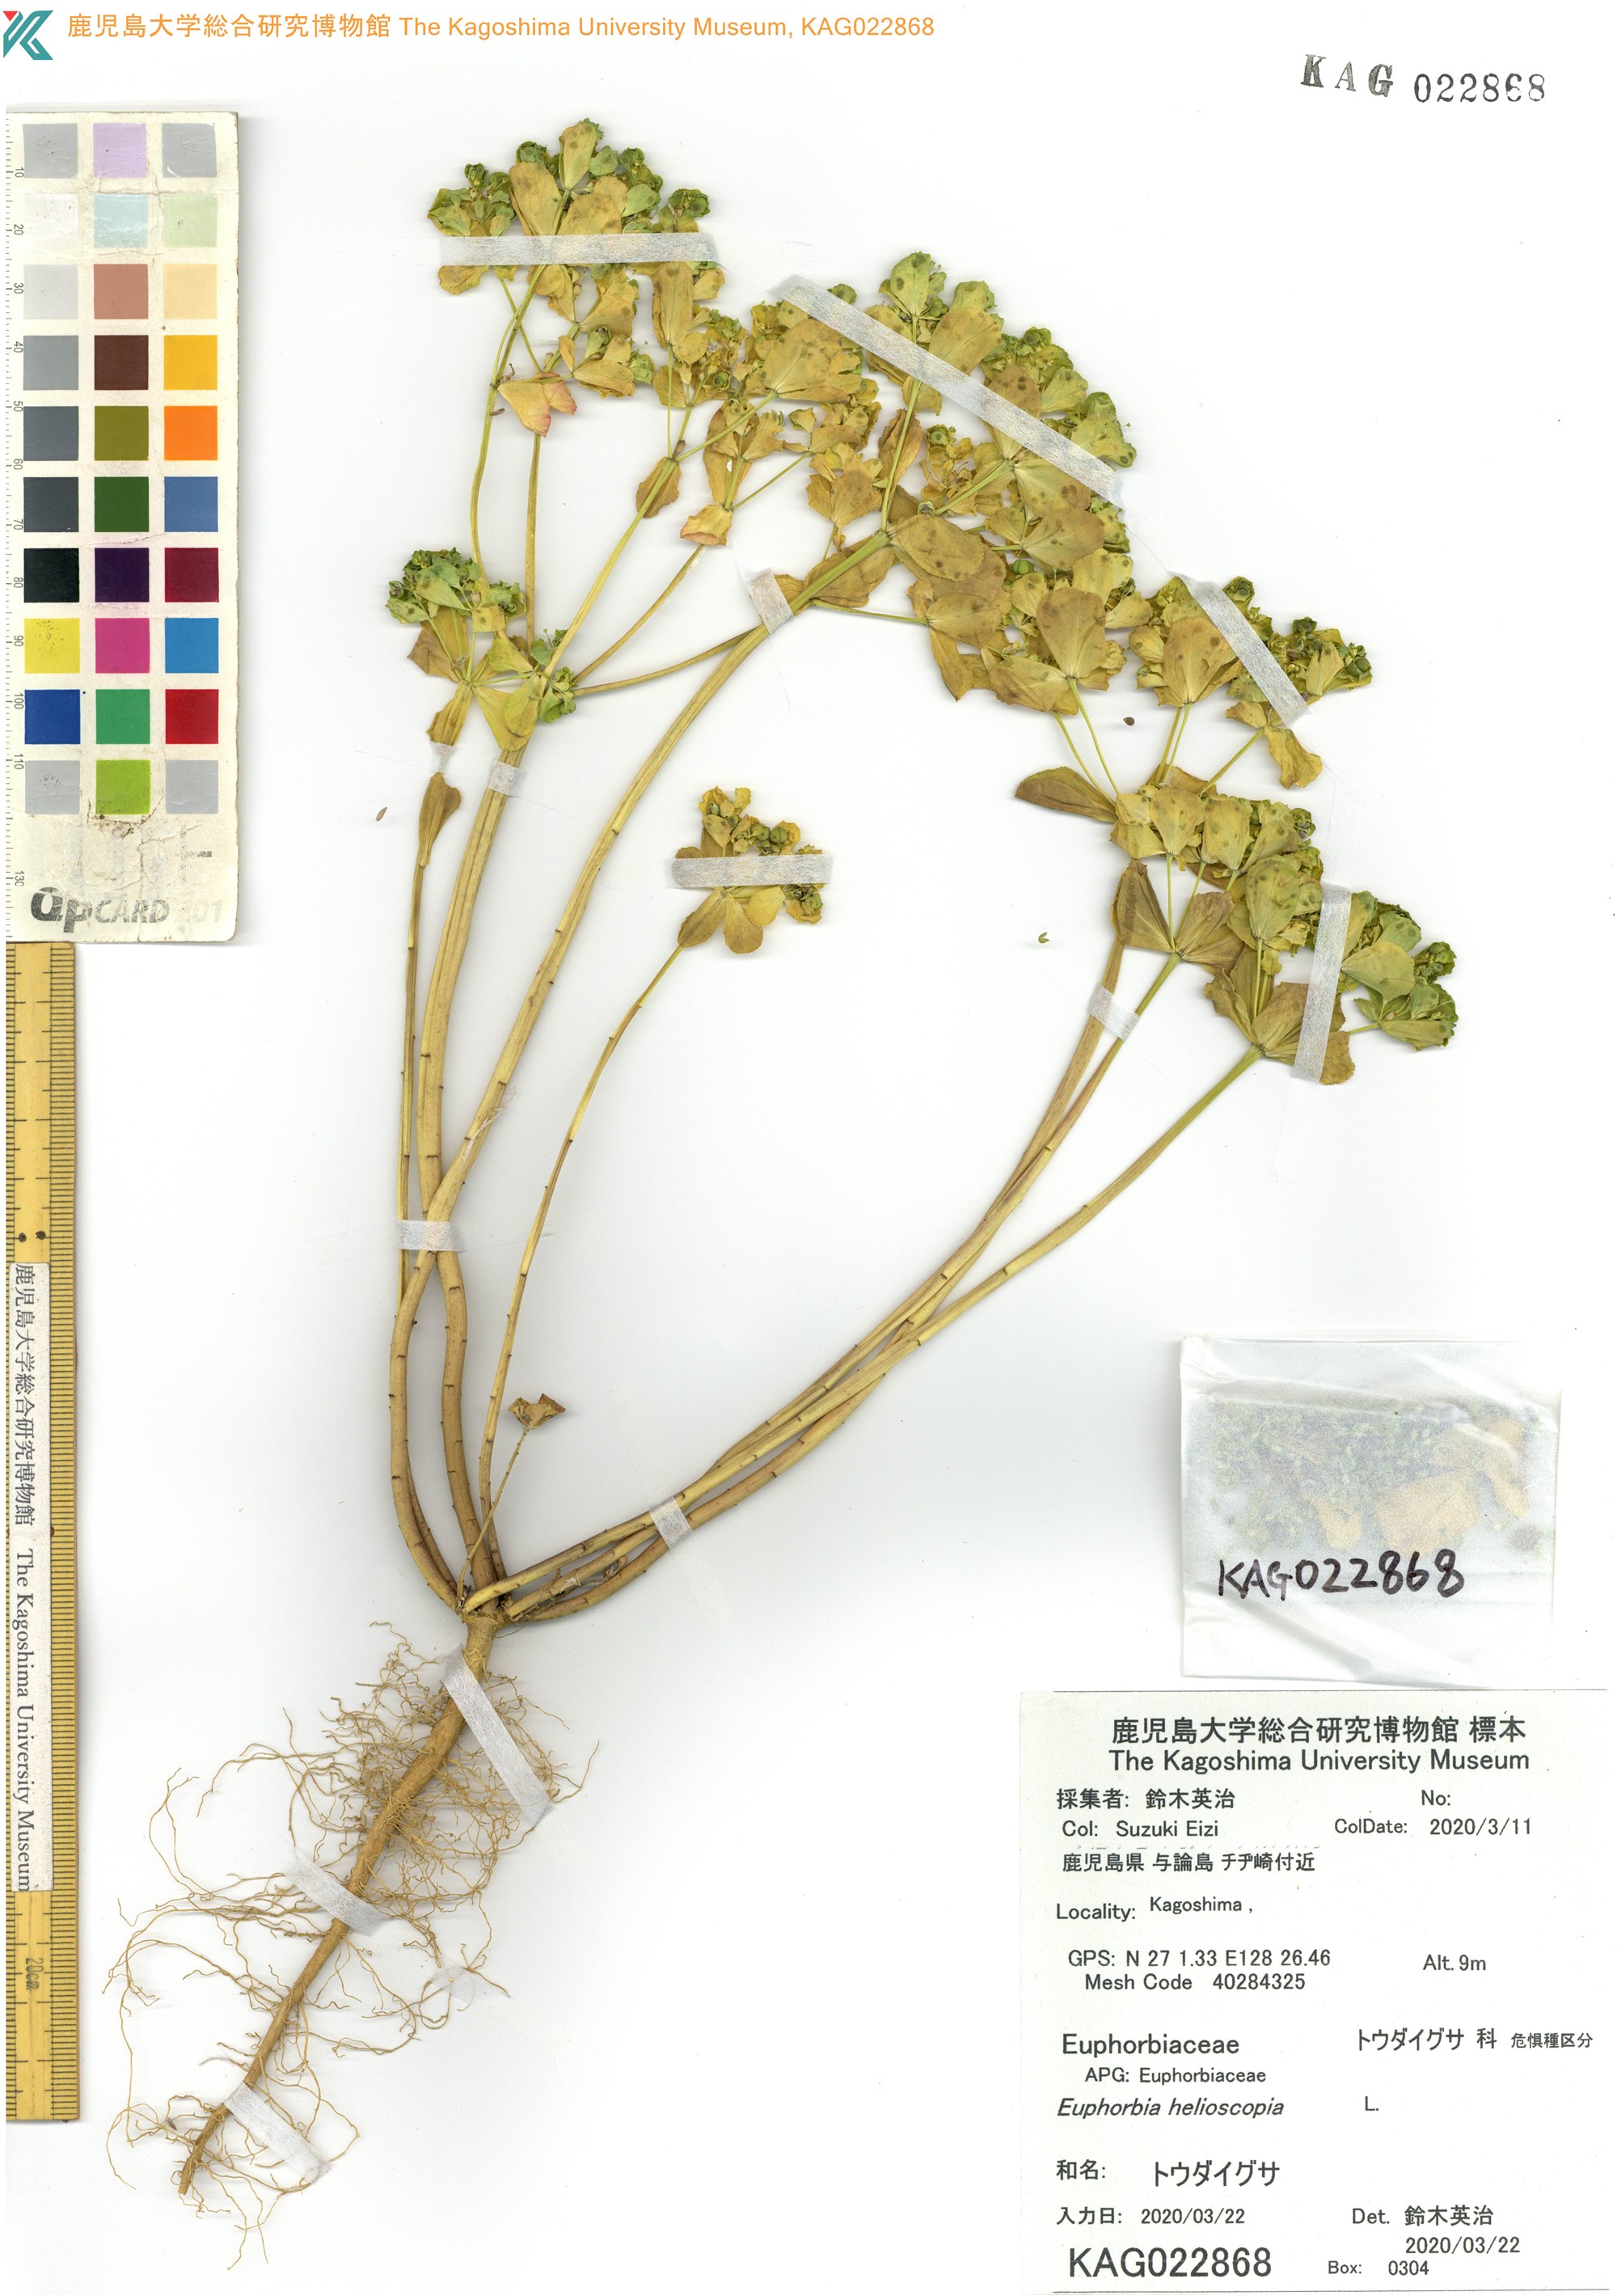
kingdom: Plantae
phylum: Tracheophyta
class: Magnoliopsida
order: Malpighiales
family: Euphorbiaceae
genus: Euphorbia
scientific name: Euphorbia helioscopia
